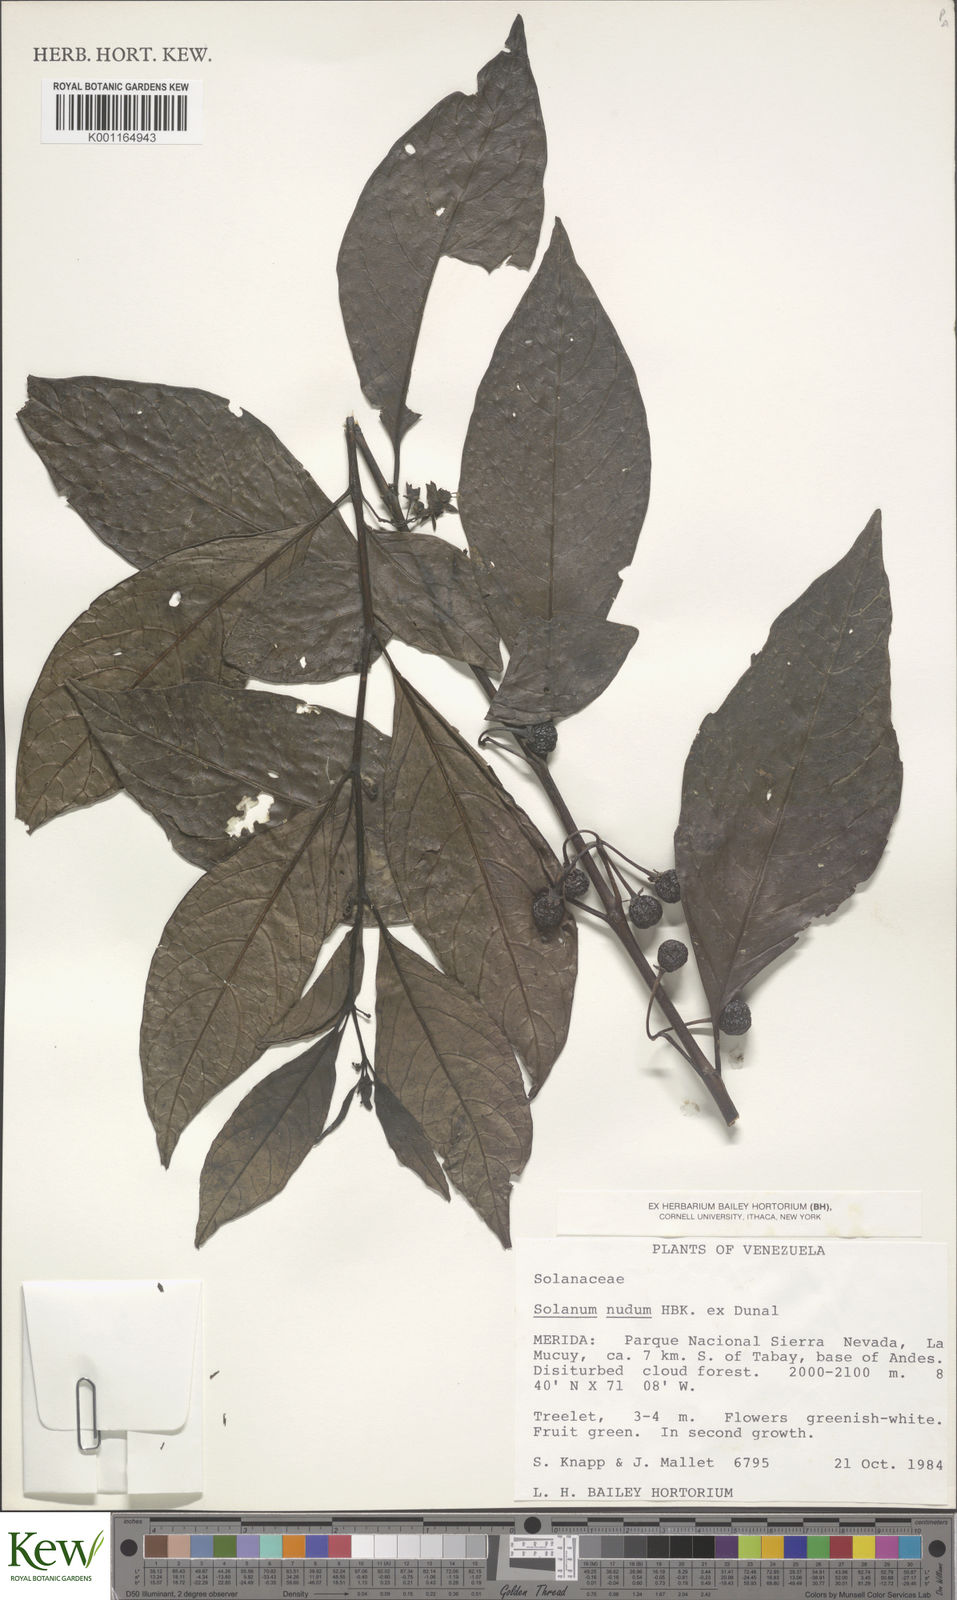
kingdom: Plantae
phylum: Tracheophyta
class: Magnoliopsida
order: Solanales
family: Solanaceae
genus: Solanum
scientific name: Solanum nudum
